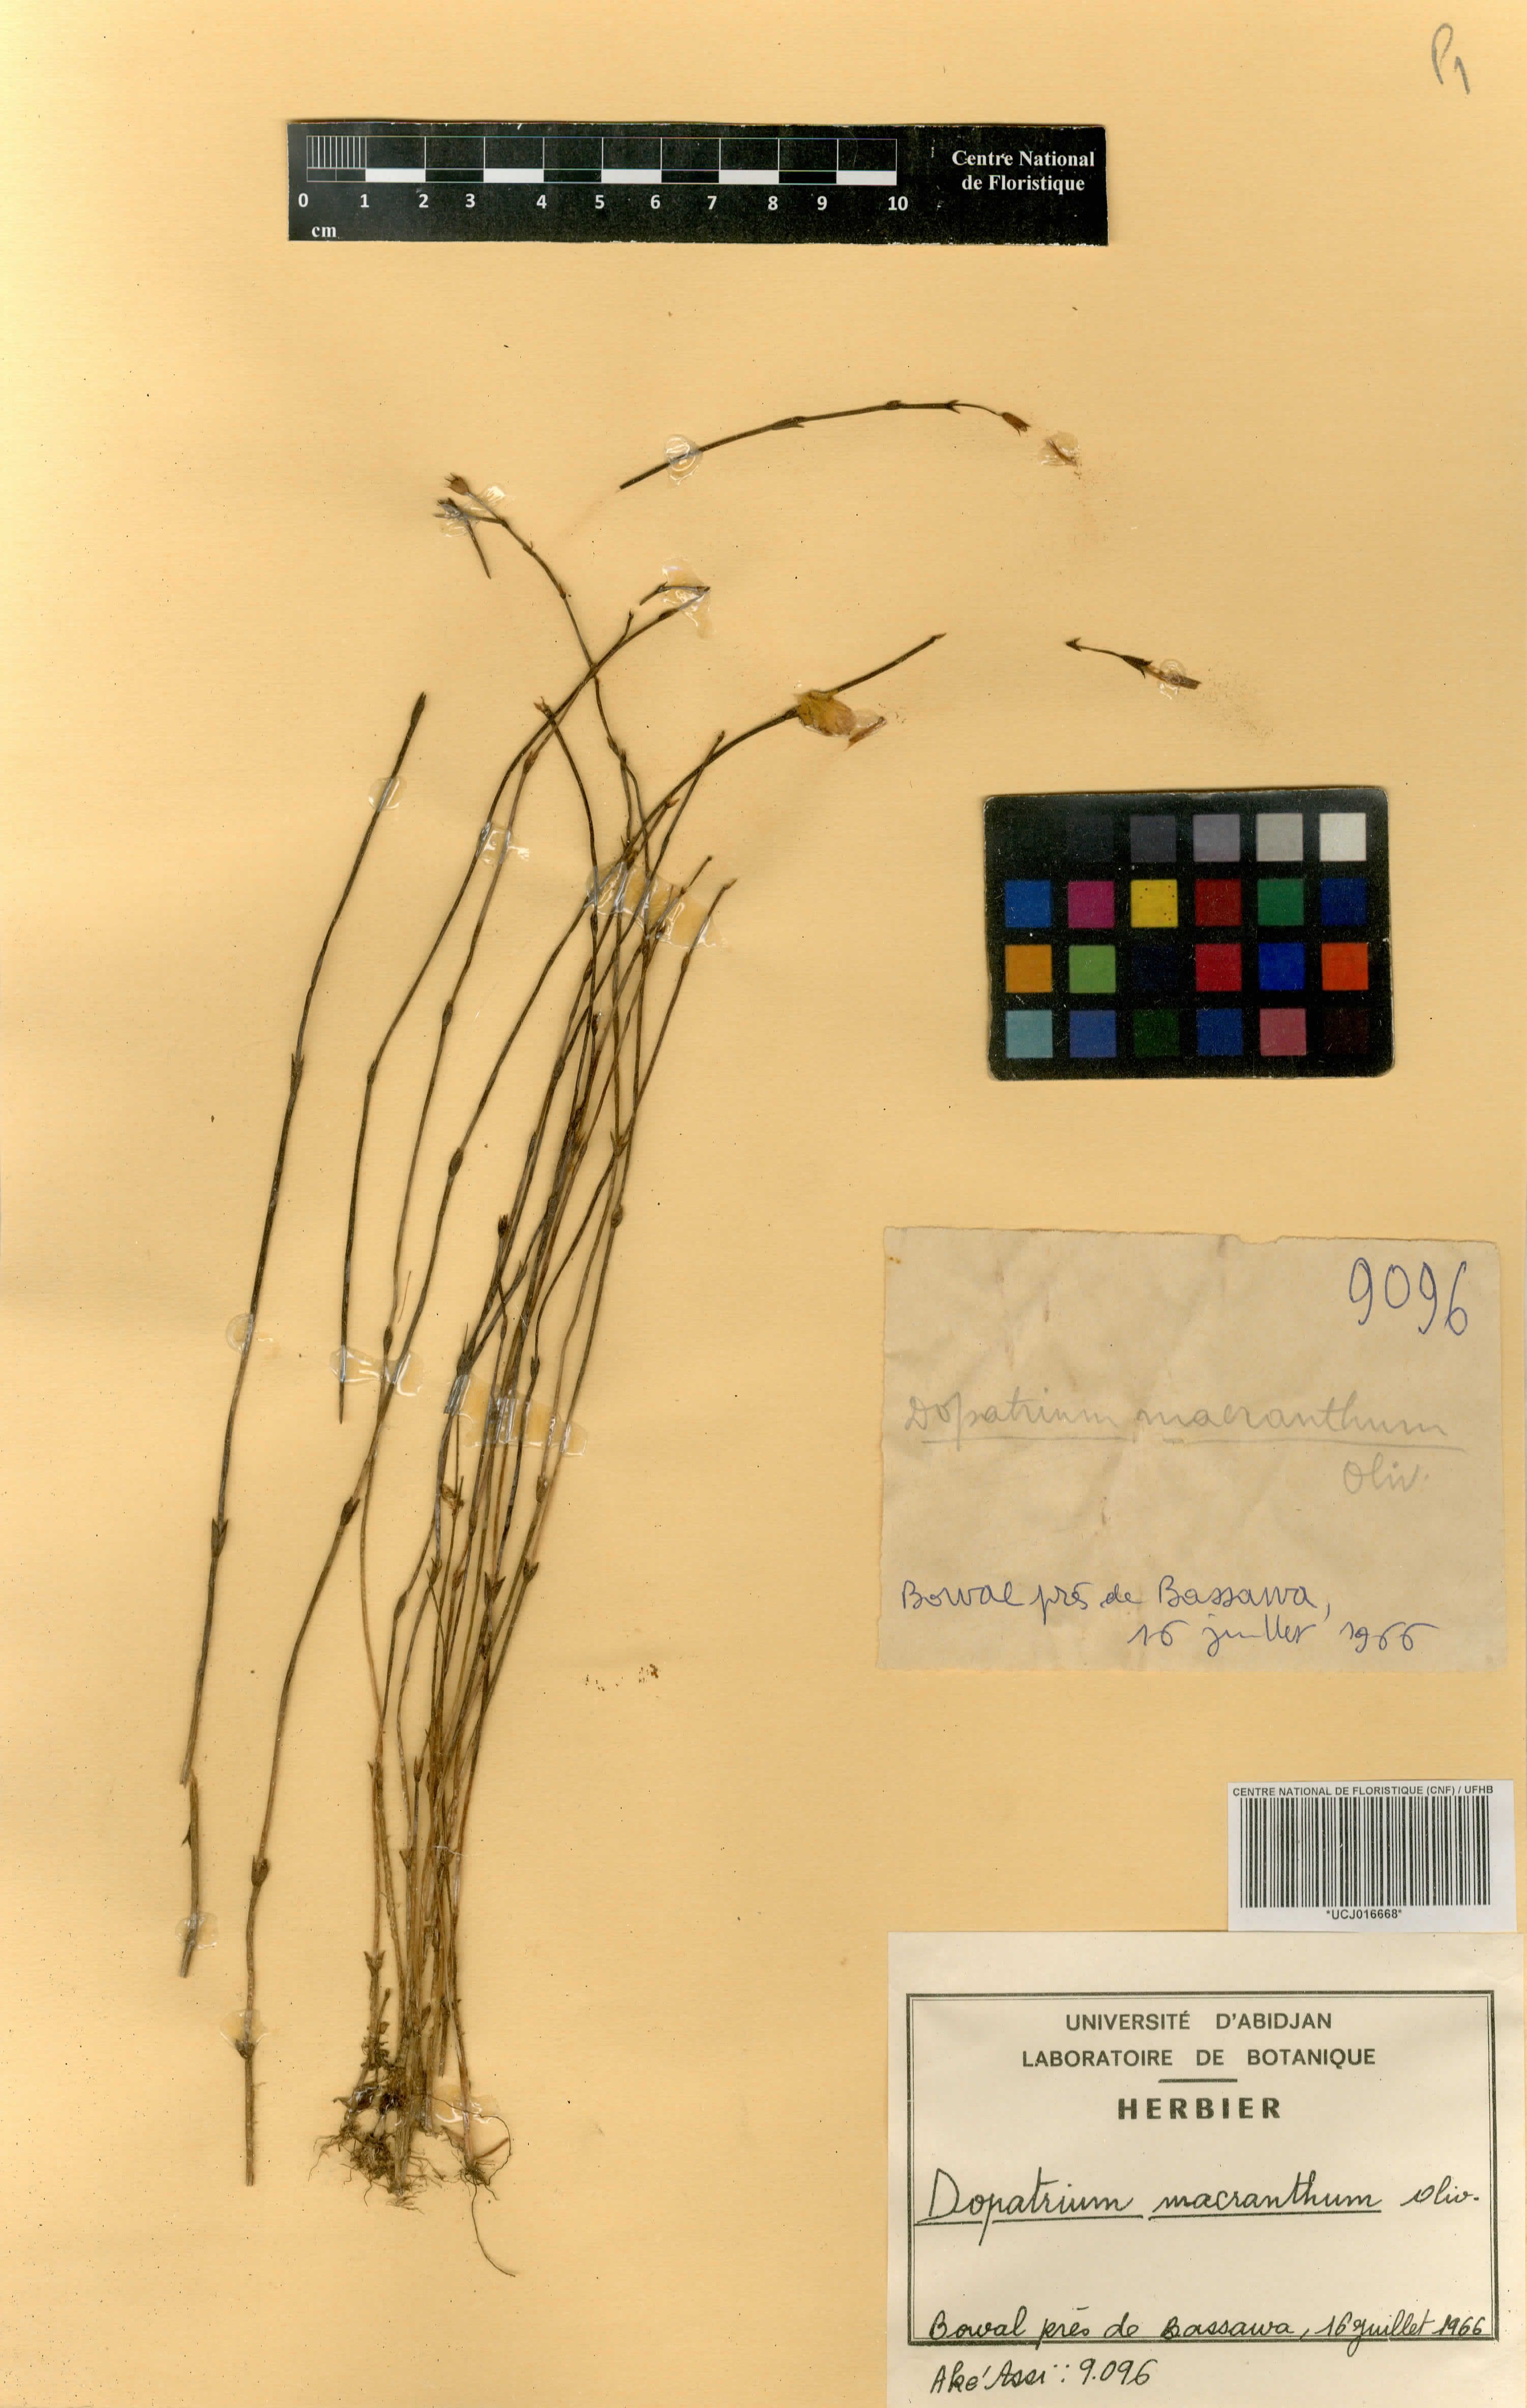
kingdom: Plantae
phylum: Tracheophyta
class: Magnoliopsida
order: Lamiales
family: Plantaginaceae
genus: Dopatrium
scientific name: Dopatrium macranthum
